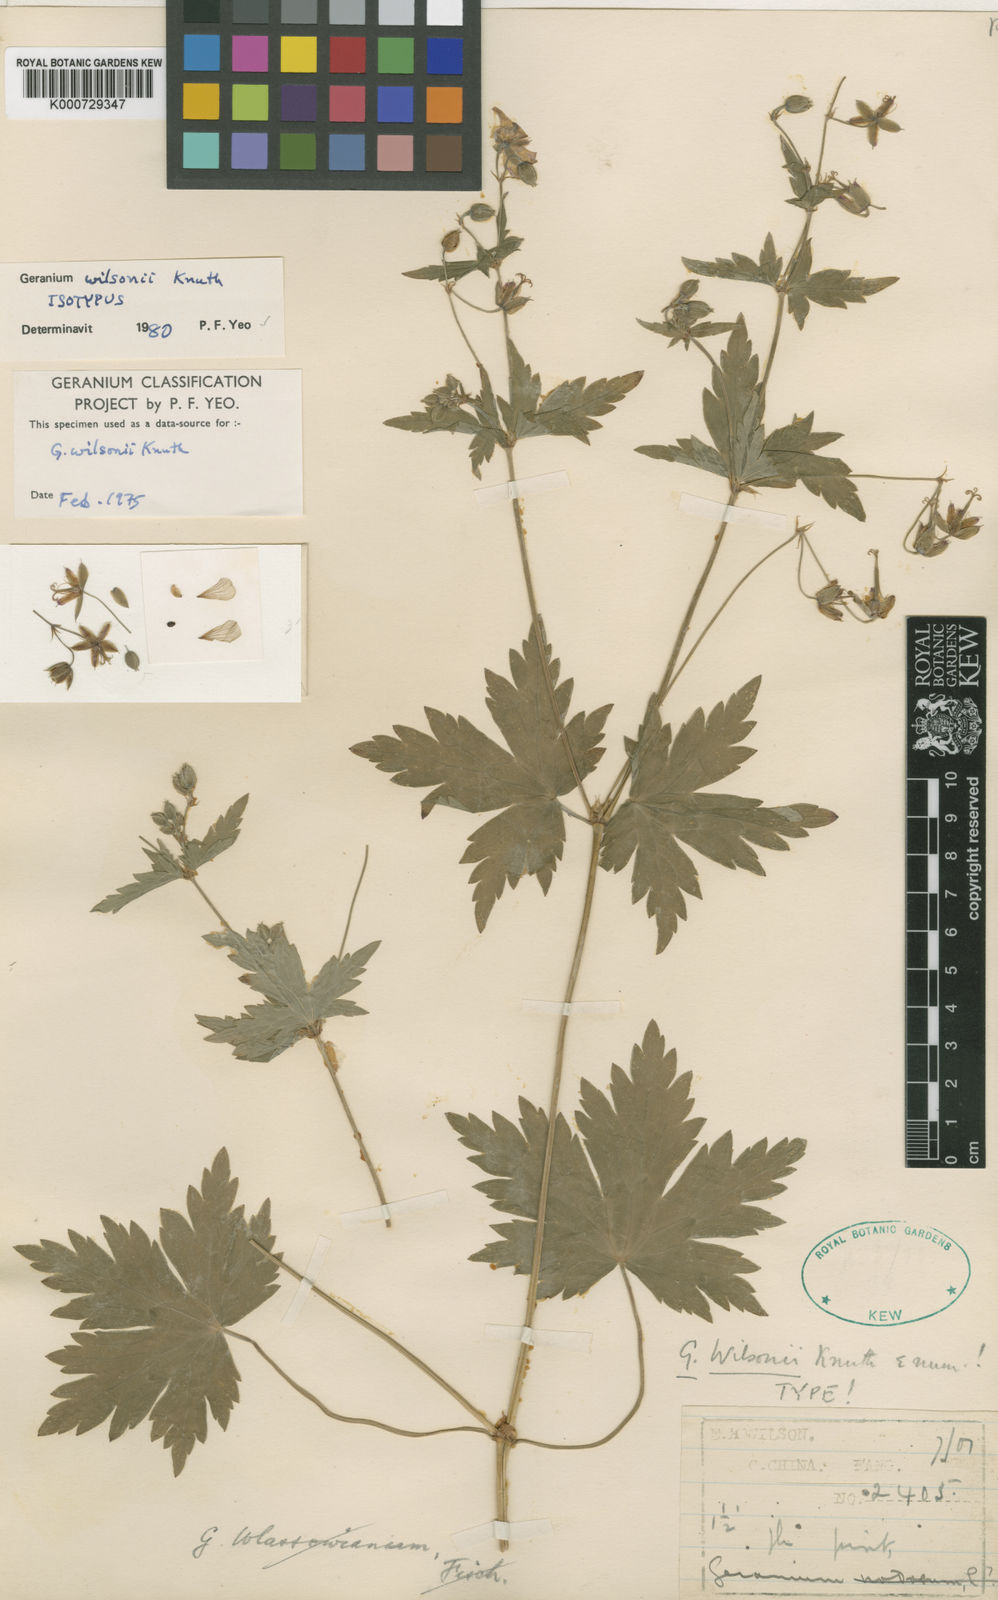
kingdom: Plantae
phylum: Tracheophyta
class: Magnoliopsida
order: Geraniales
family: Geraniaceae
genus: Geranium
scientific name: Geranium rosthornii
